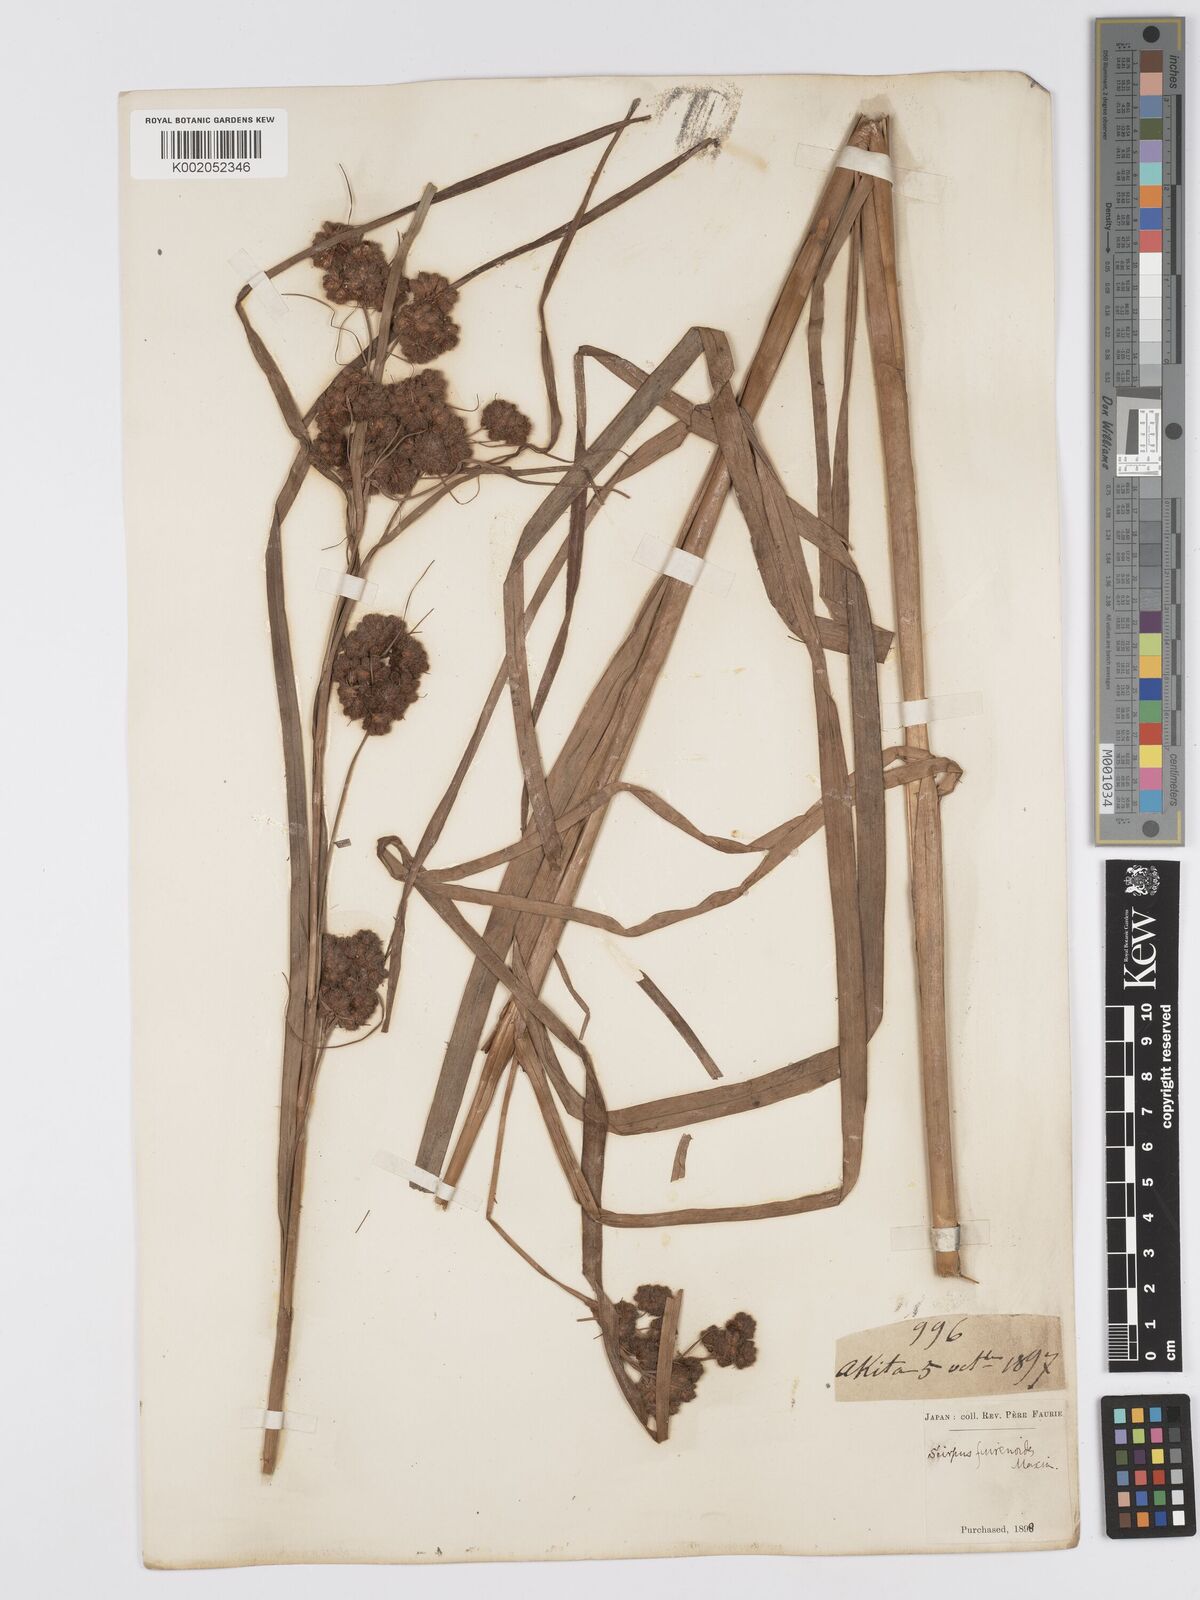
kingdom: Plantae
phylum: Tracheophyta
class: Liliopsida
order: Poales
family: Cyperaceae
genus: Scirpus
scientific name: Scirpus fuirenoides
